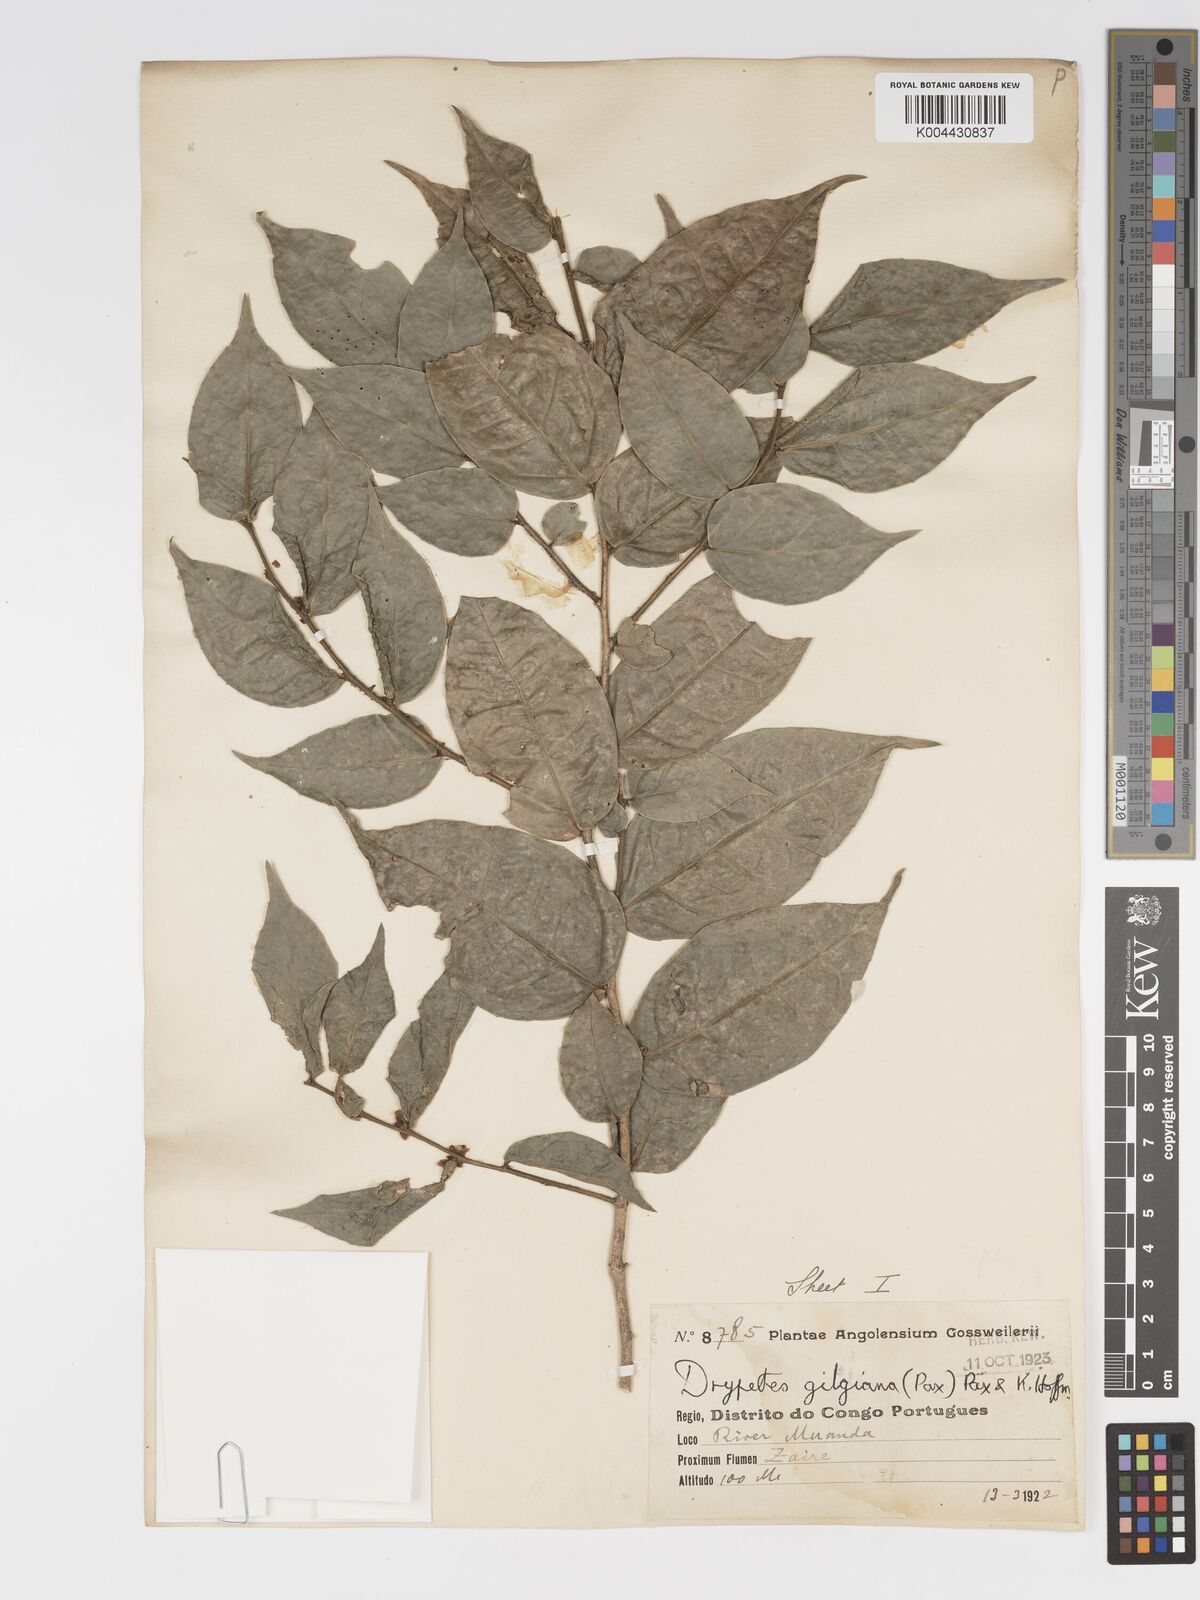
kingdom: Plantae
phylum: Tracheophyta
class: Magnoliopsida
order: Malpighiales
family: Putranjivaceae
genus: Drypetes
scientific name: Drypetes gilgiana
